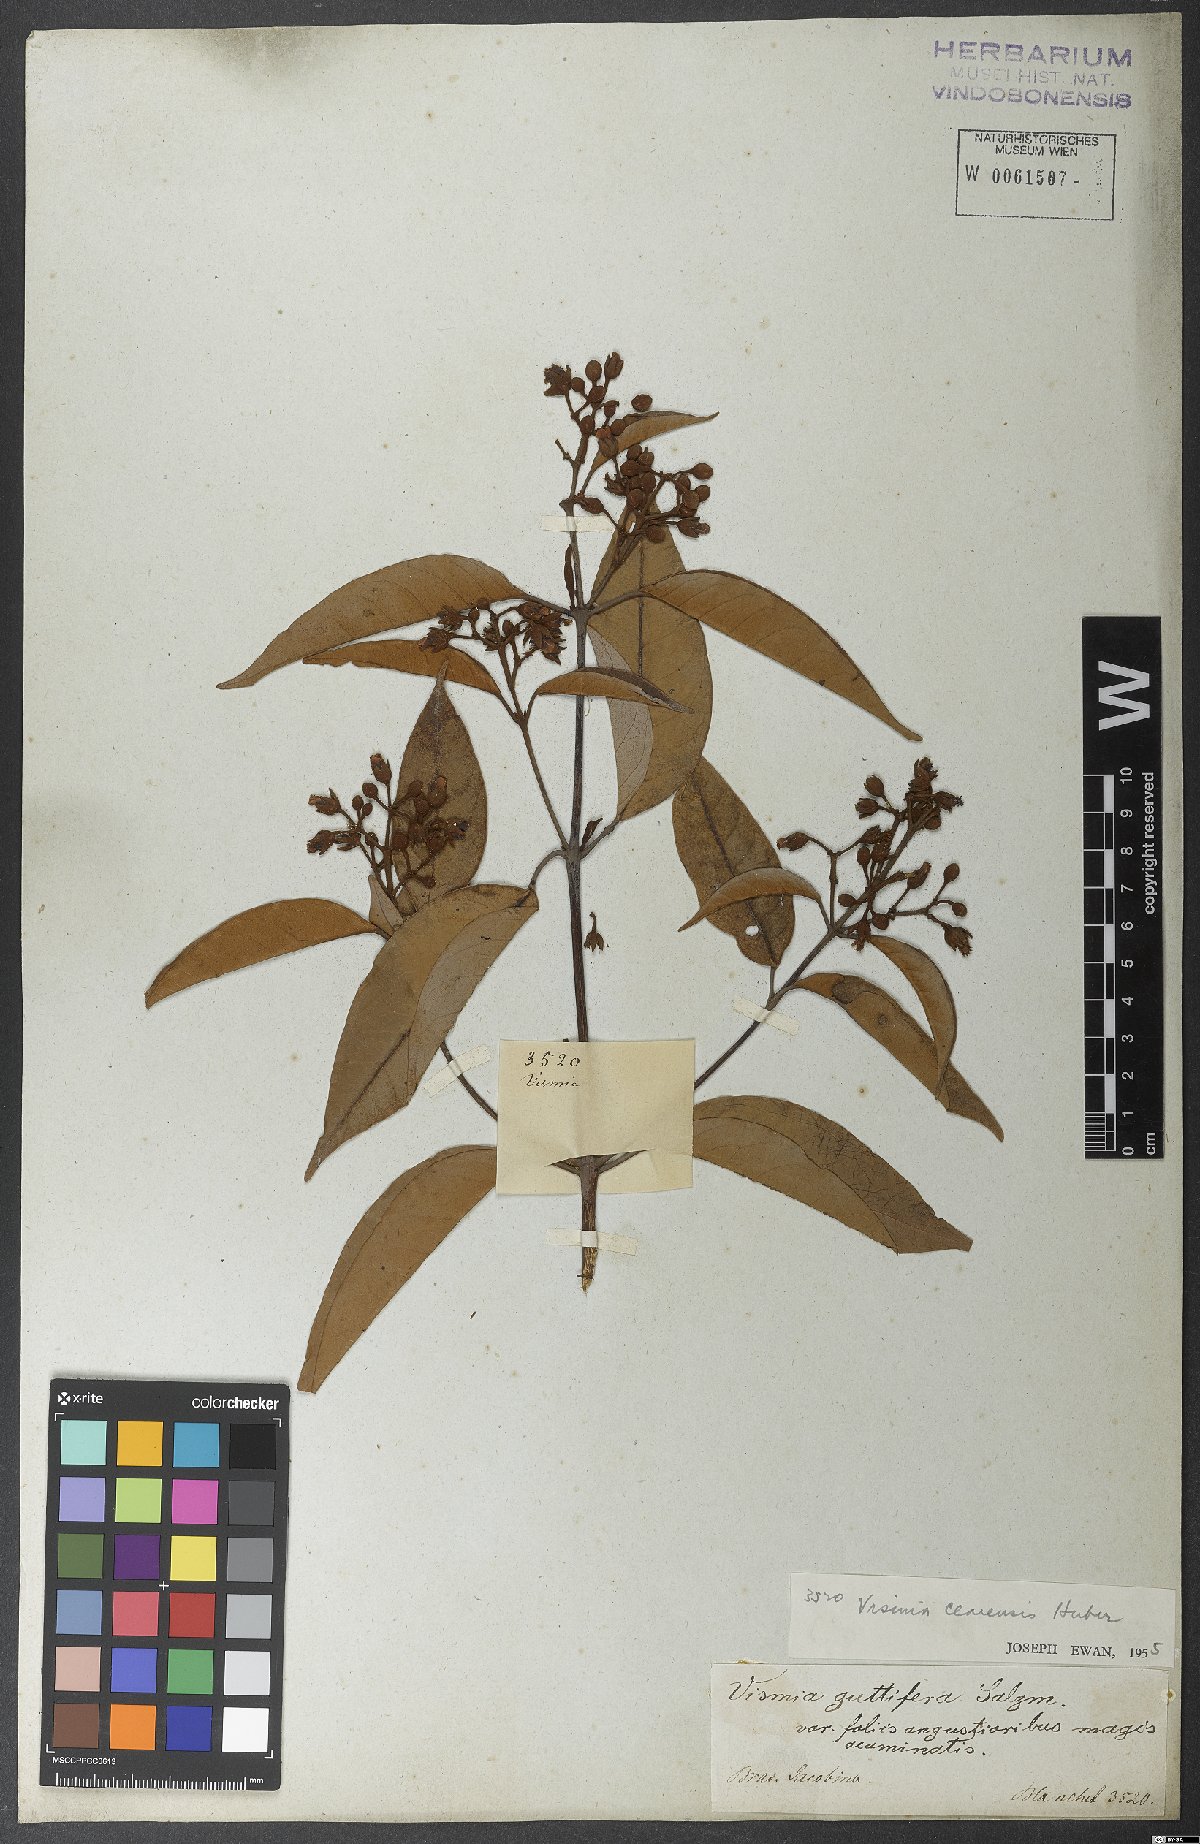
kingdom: Plantae
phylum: Tracheophyta
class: Magnoliopsida
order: Malpighiales
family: Hypericaceae
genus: Vismia
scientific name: Vismia guianensis
